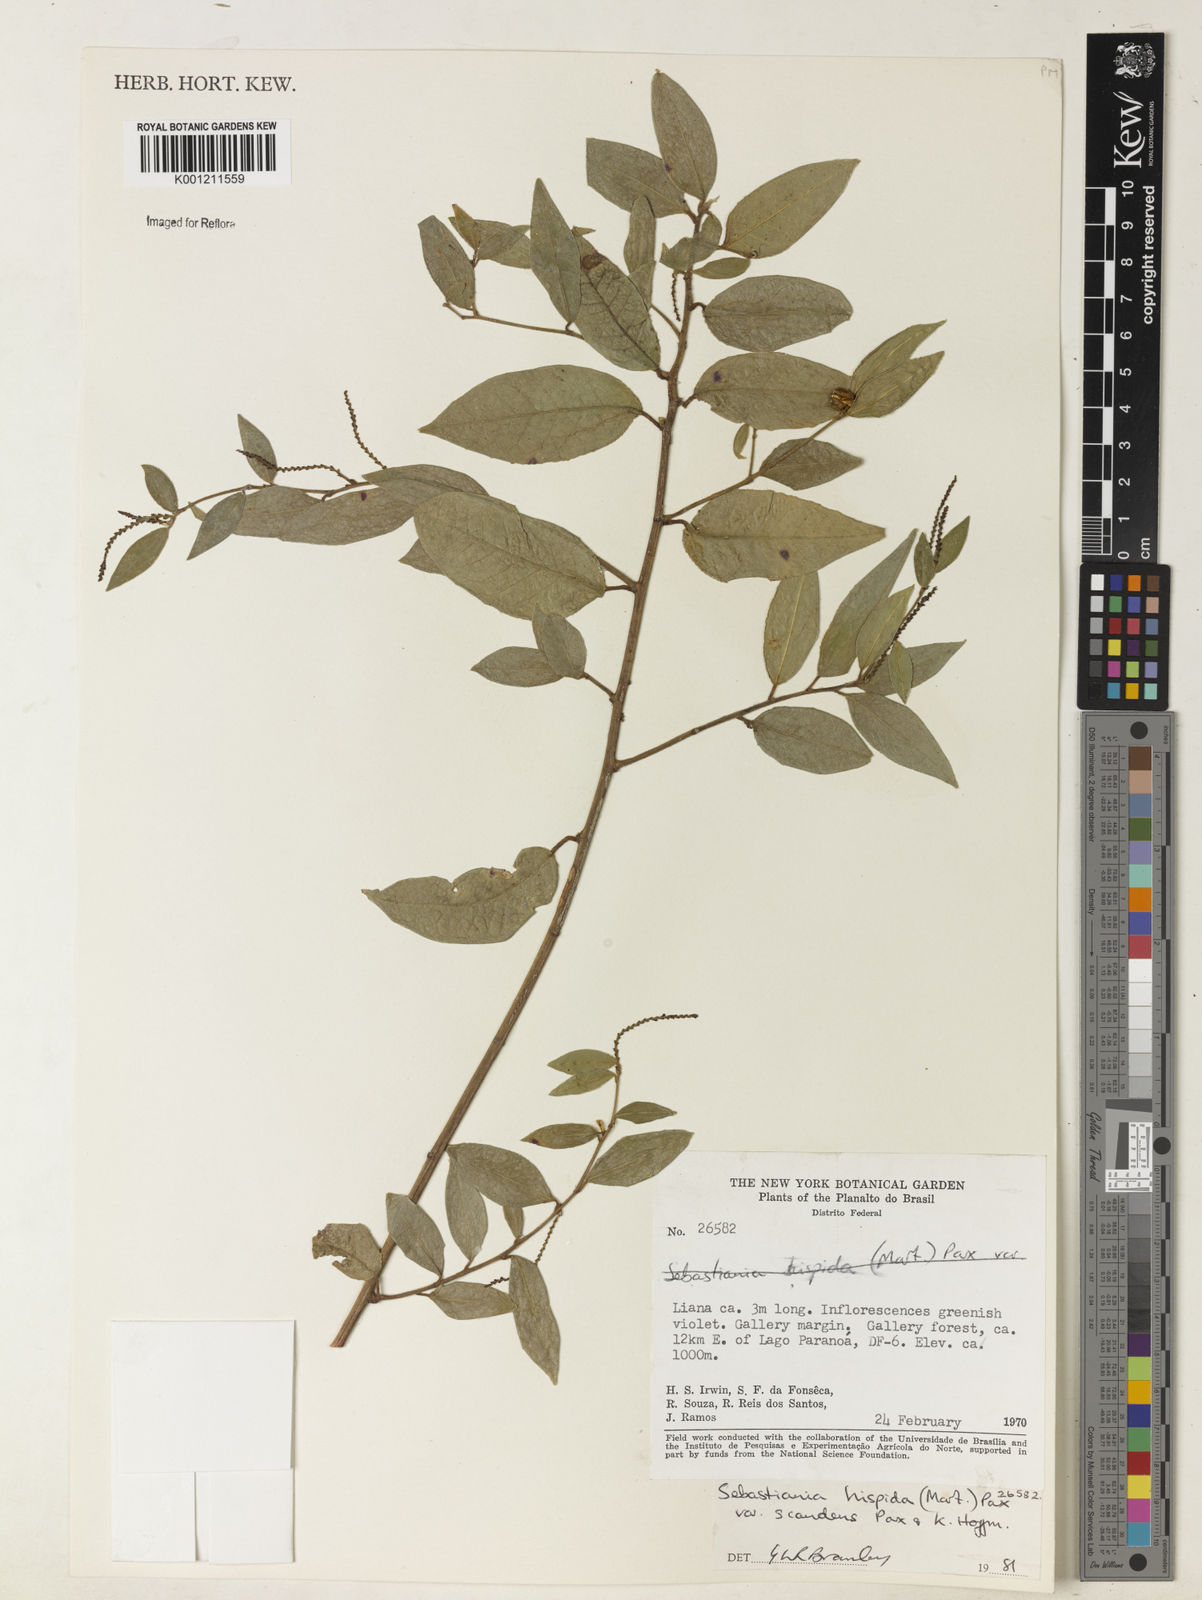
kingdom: Plantae
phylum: Tracheophyta
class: Magnoliopsida
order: Malpighiales
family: Euphorbiaceae
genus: Microstachys
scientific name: Microstachys hispida
